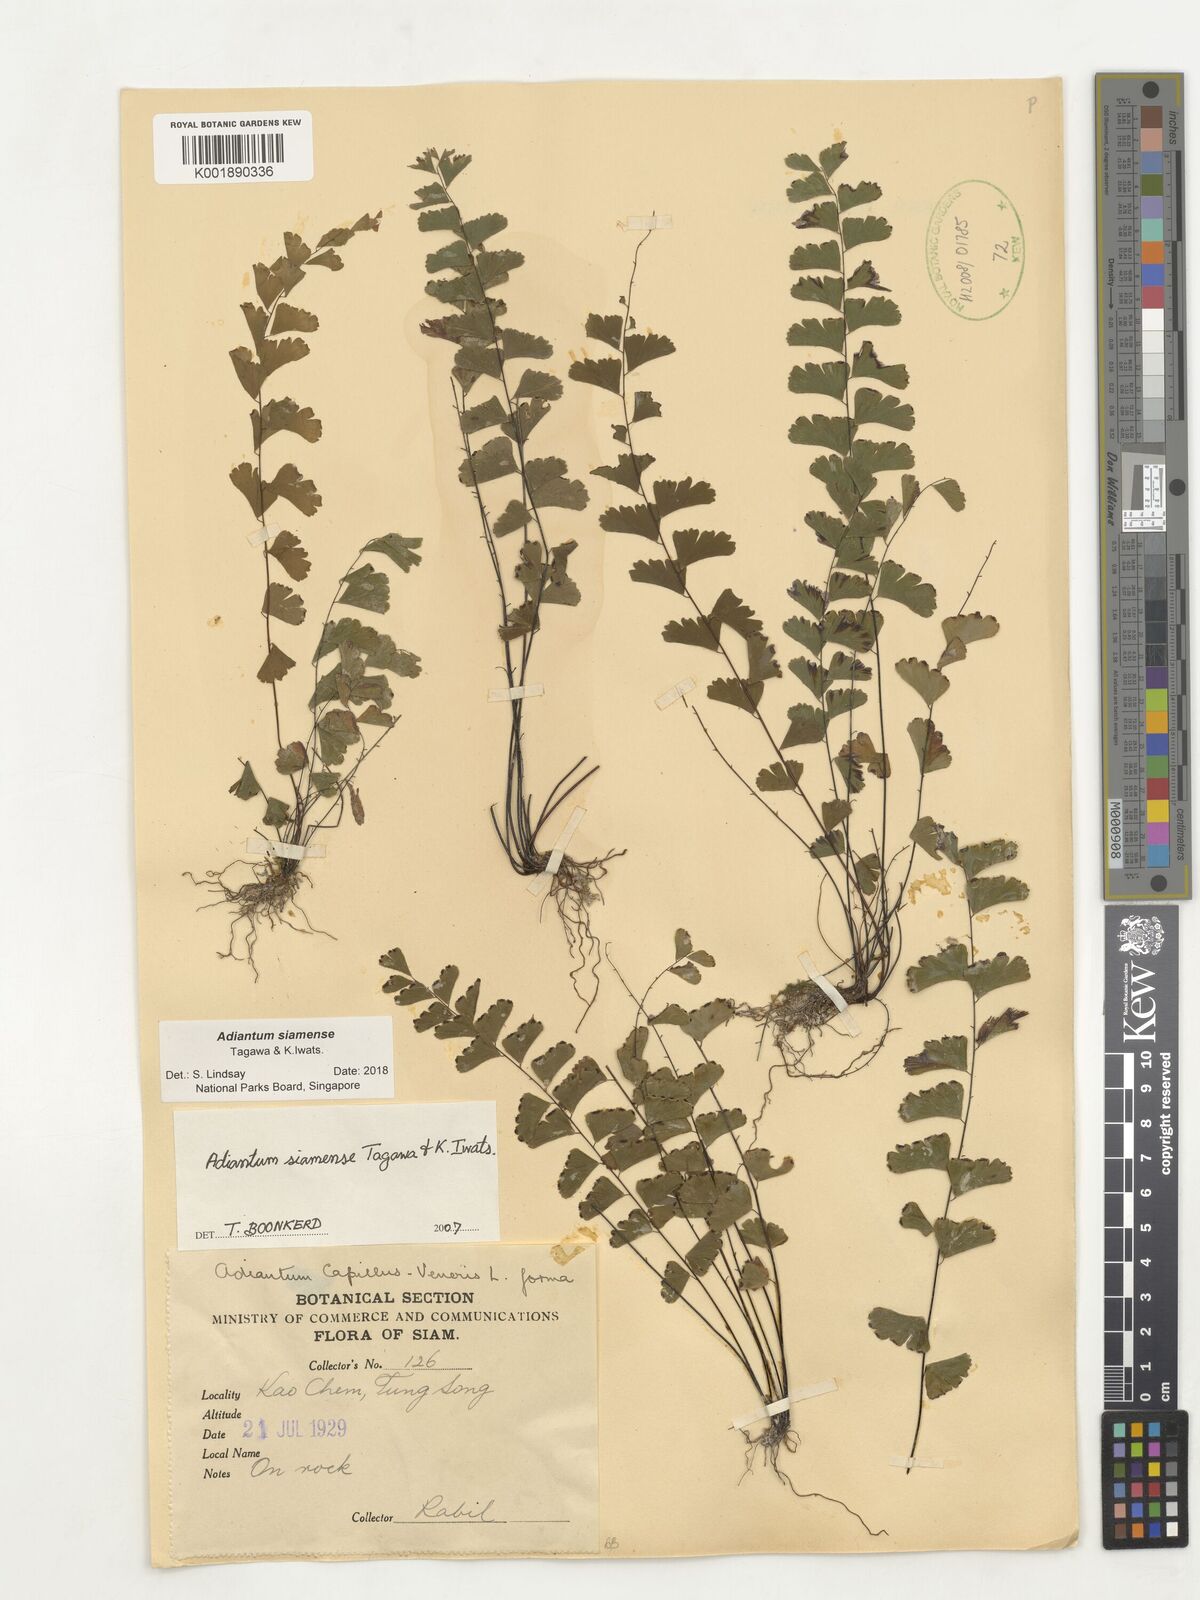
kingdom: Plantae
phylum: Tracheophyta
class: Polypodiopsida
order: Polypodiales
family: Pteridaceae
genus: Adiantum
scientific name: Adiantum siamense
